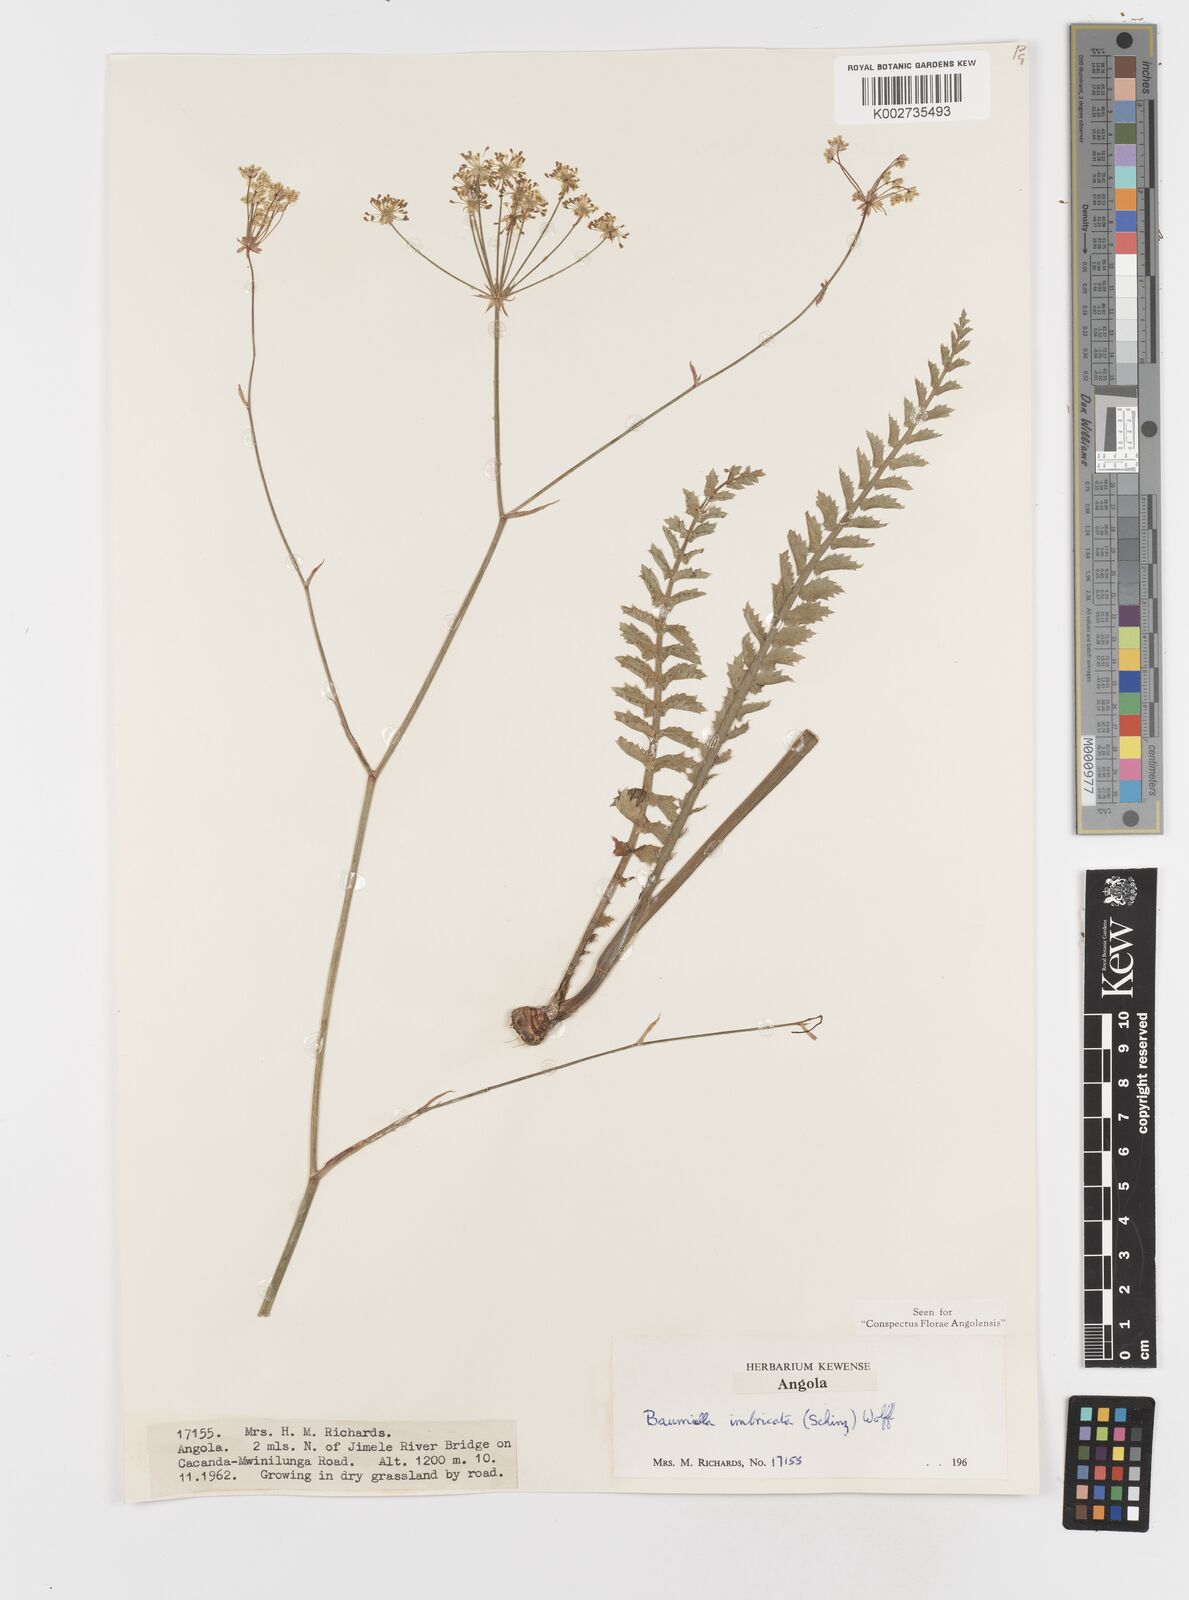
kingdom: Plantae
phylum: Tracheophyta
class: Magnoliopsida
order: Apiales
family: Apiaceae
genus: Berula
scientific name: Berula imbricata
